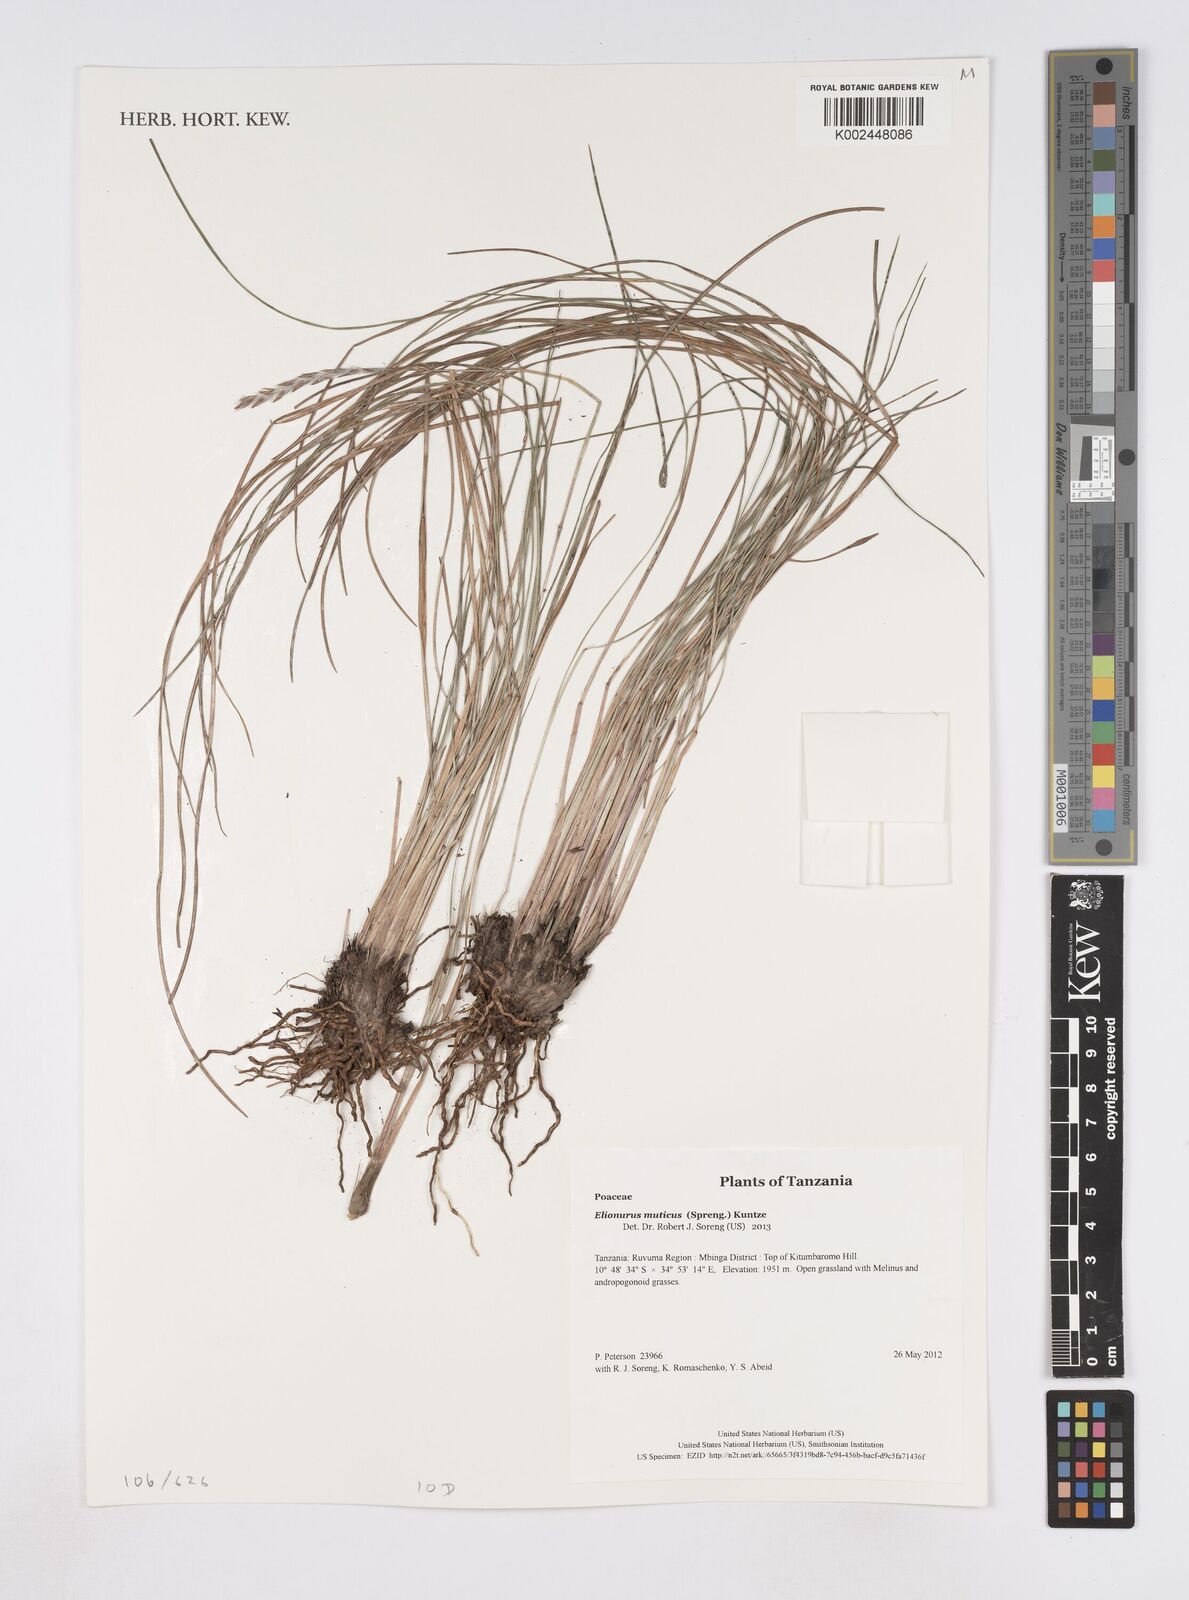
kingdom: Plantae
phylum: Tracheophyta
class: Liliopsida
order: Poales
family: Poaceae
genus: Elionurus
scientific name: Elionurus muticus
